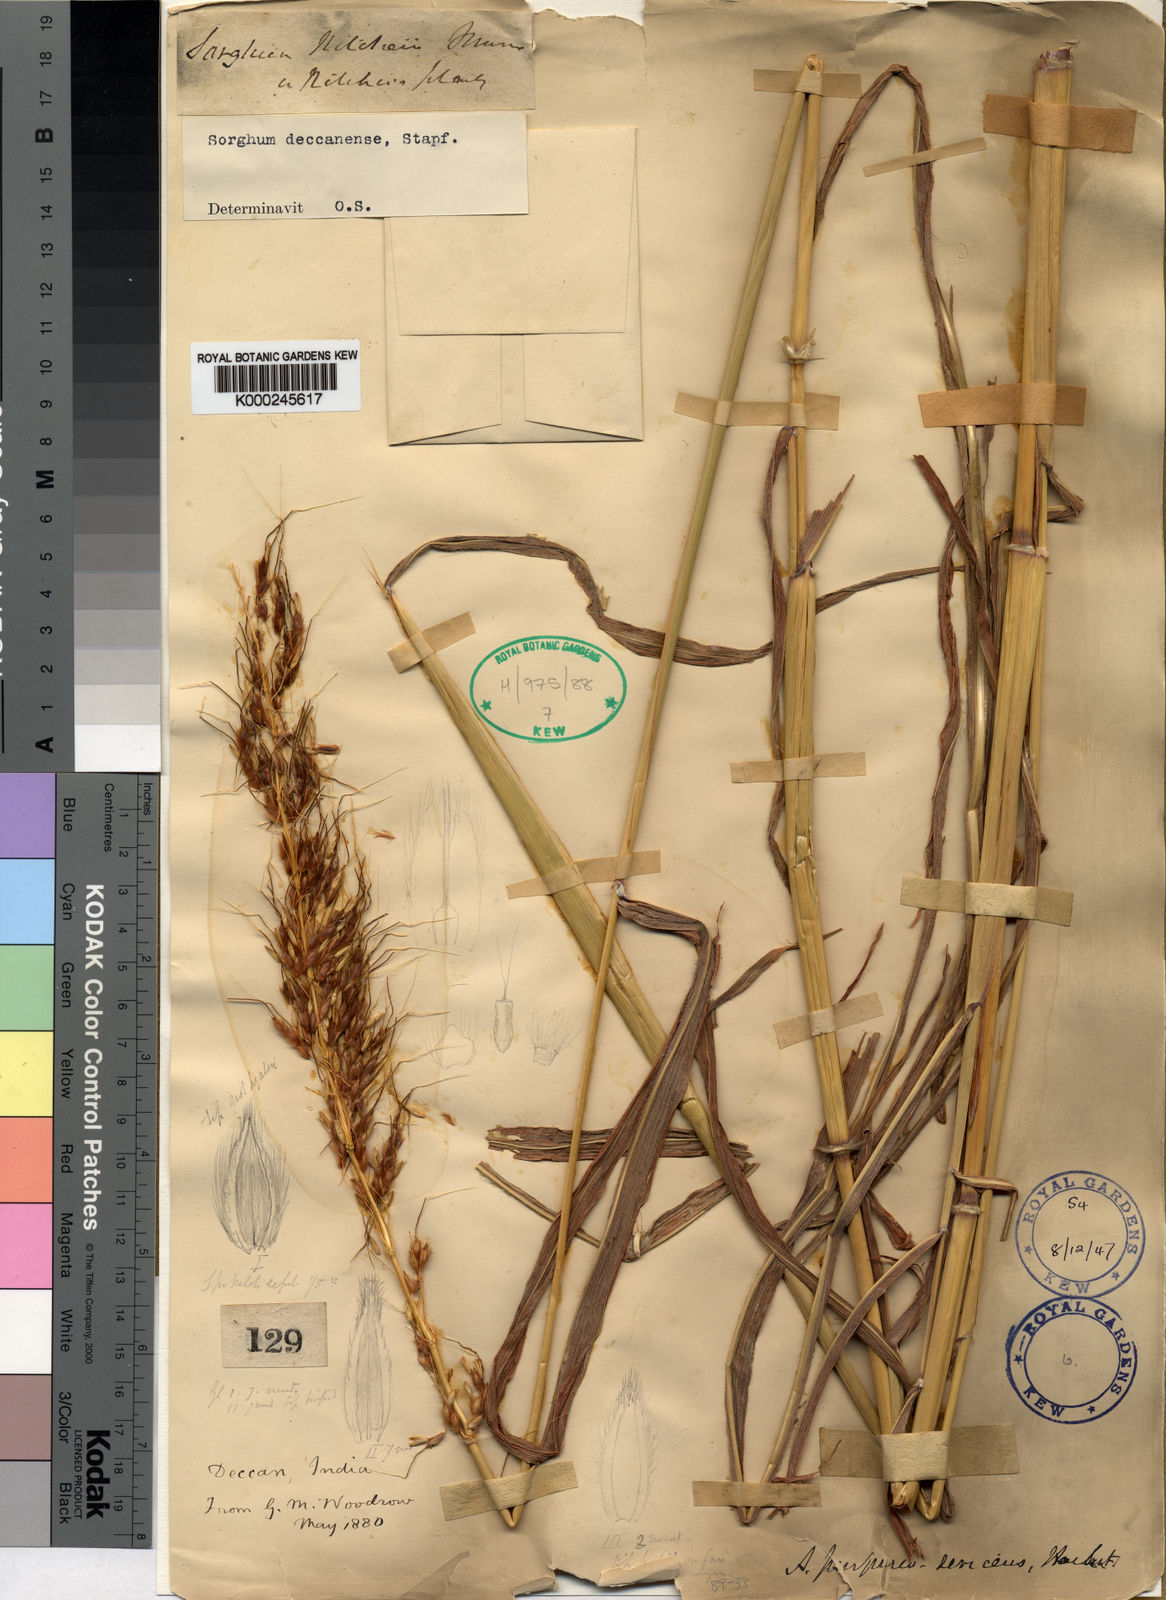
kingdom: Plantae
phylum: Tracheophyta
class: Liliopsida
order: Poales
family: Poaceae
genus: Sarga
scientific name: Sarga purpureosericea
